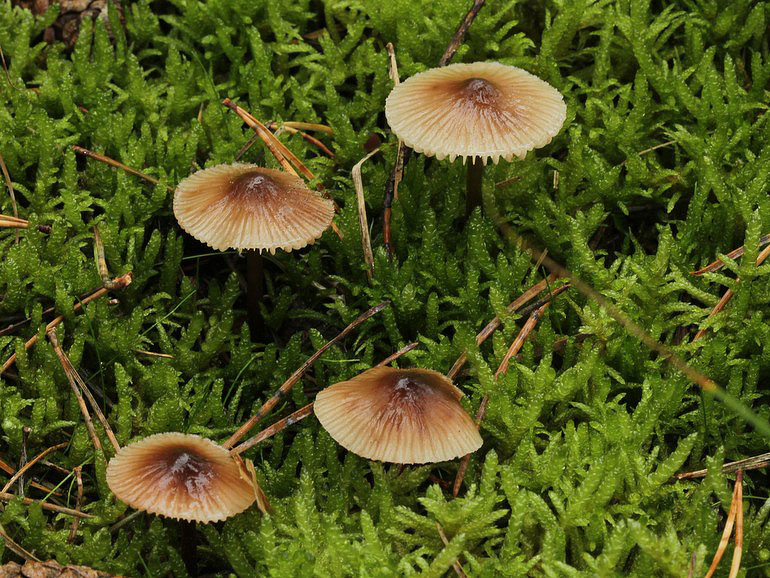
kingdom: Fungi
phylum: Basidiomycota
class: Agaricomycetes
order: Agaricales
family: Mycenaceae
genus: Mycena
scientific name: Mycena zephirus
